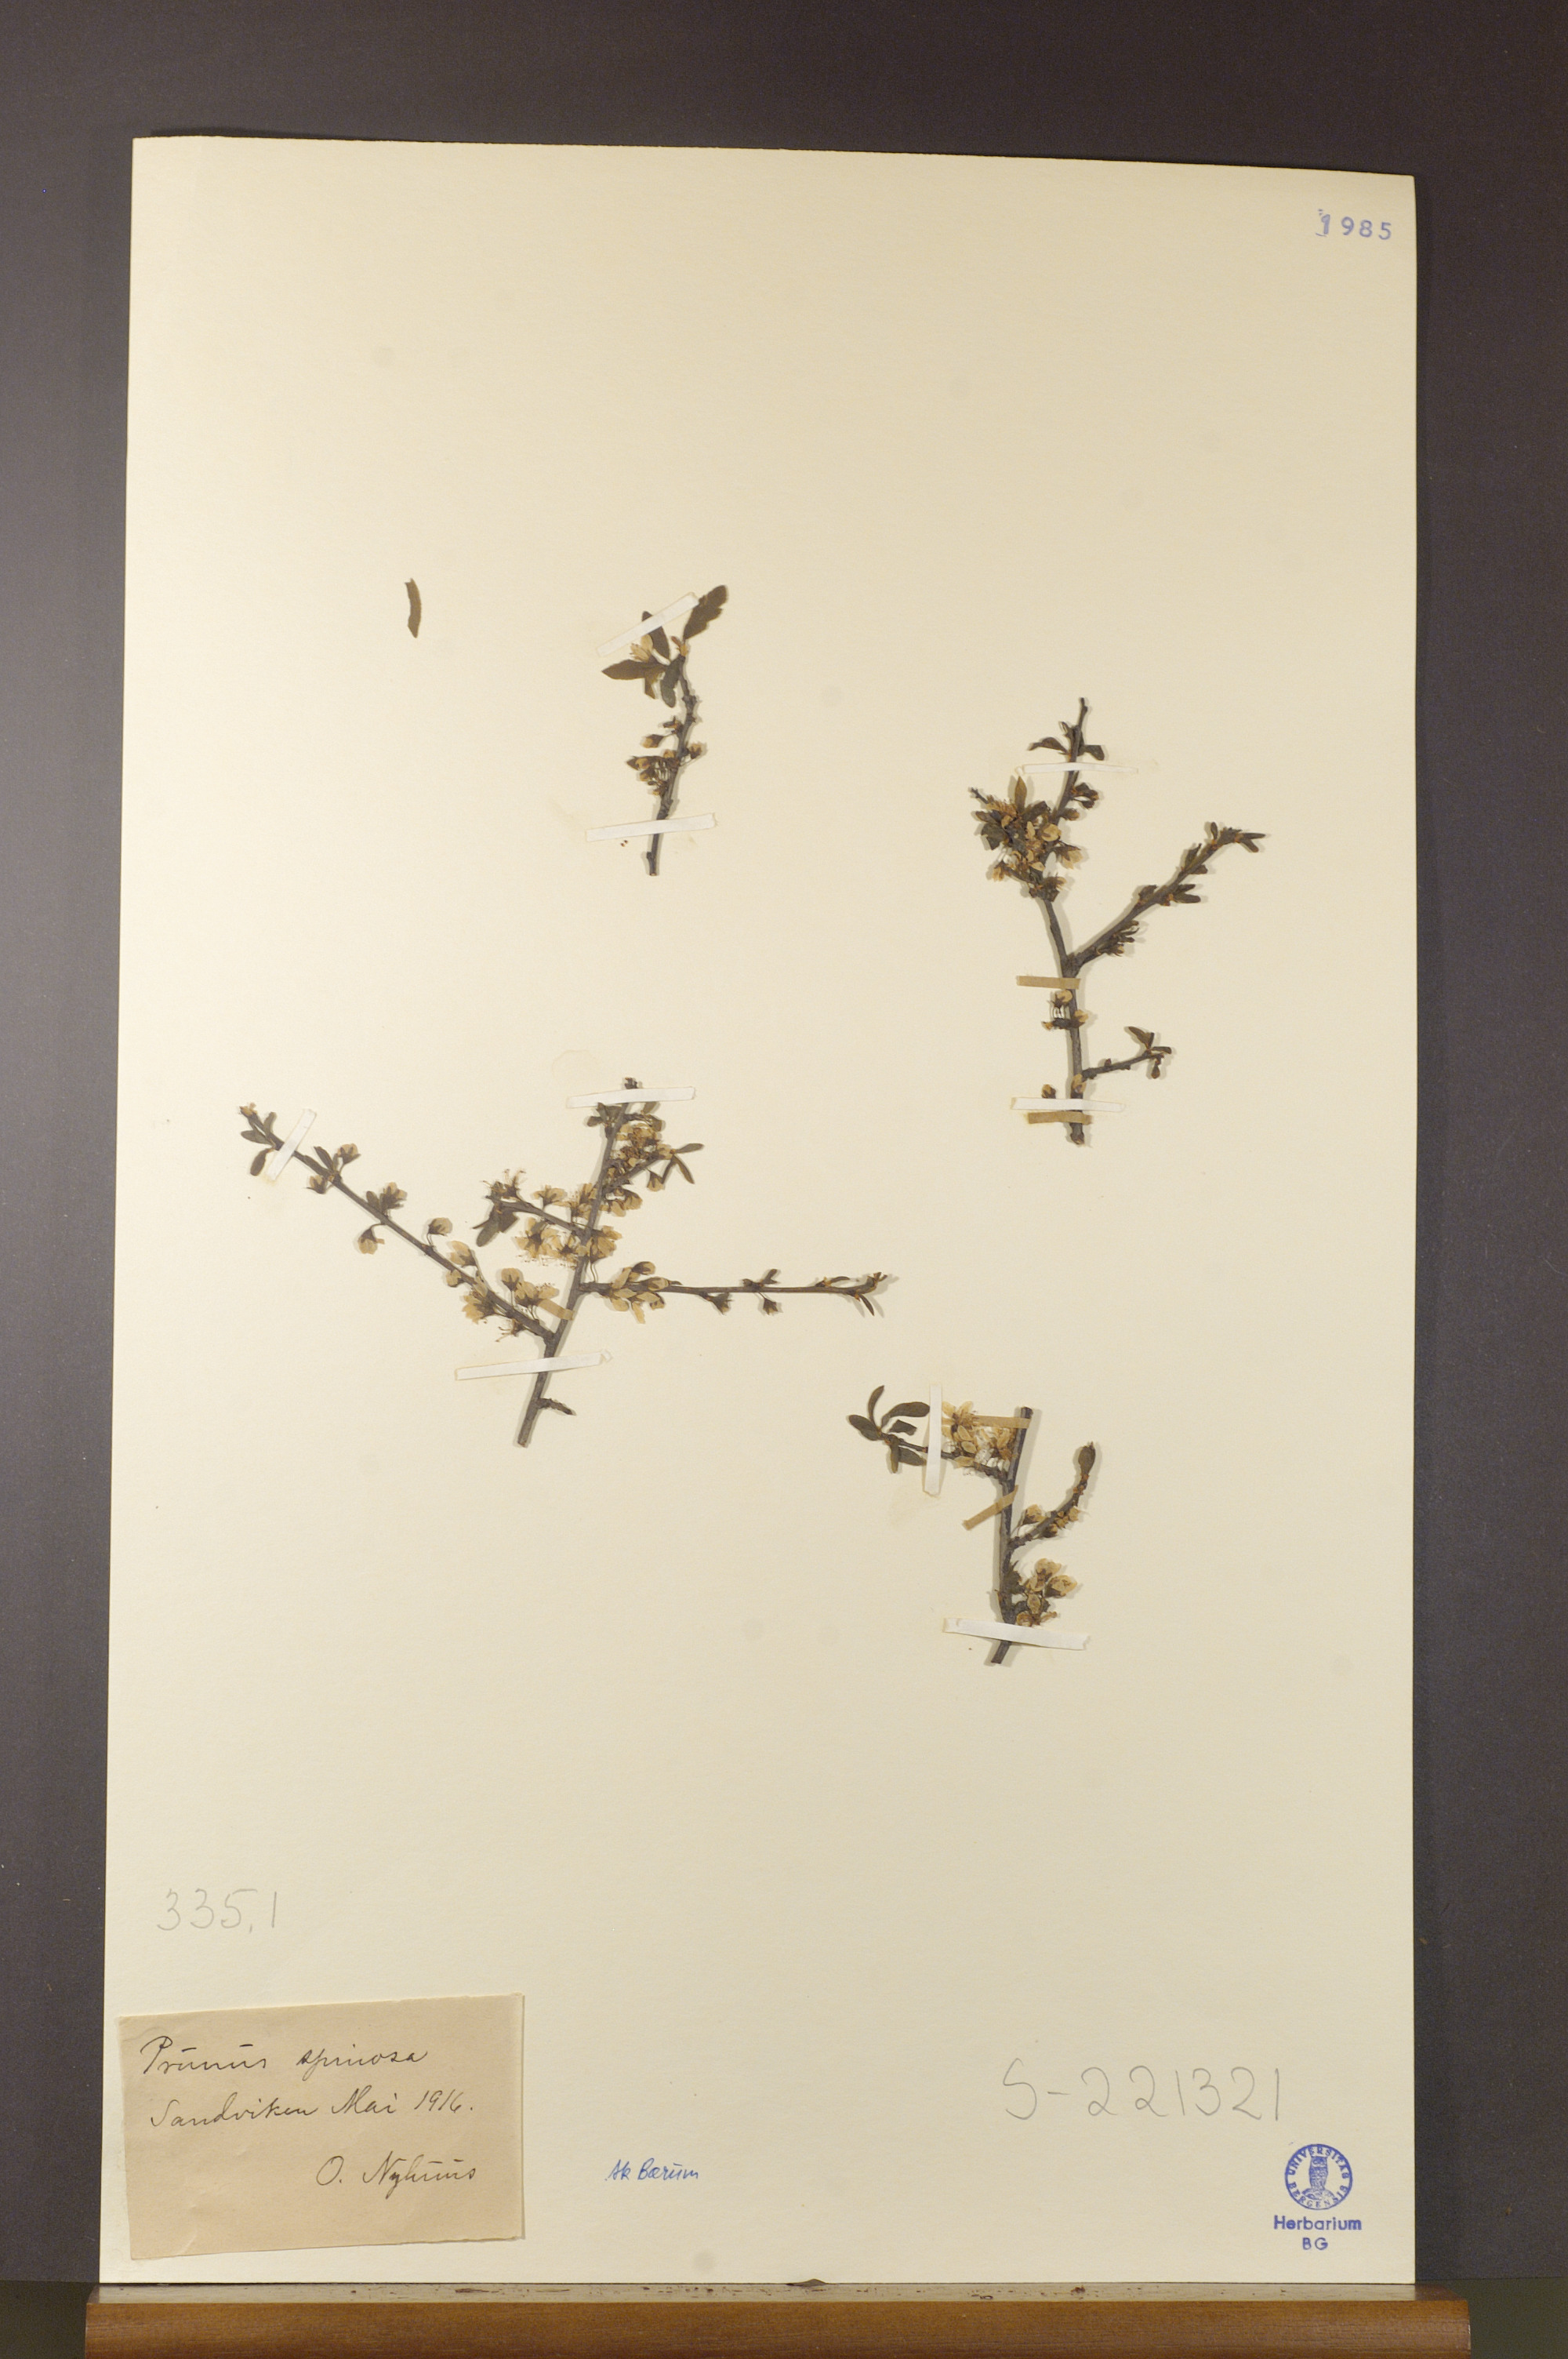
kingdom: Plantae
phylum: Tracheophyta
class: Magnoliopsida
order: Rosales
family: Rosaceae
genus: Prunus
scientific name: Prunus spinosa
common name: Blackthorn
